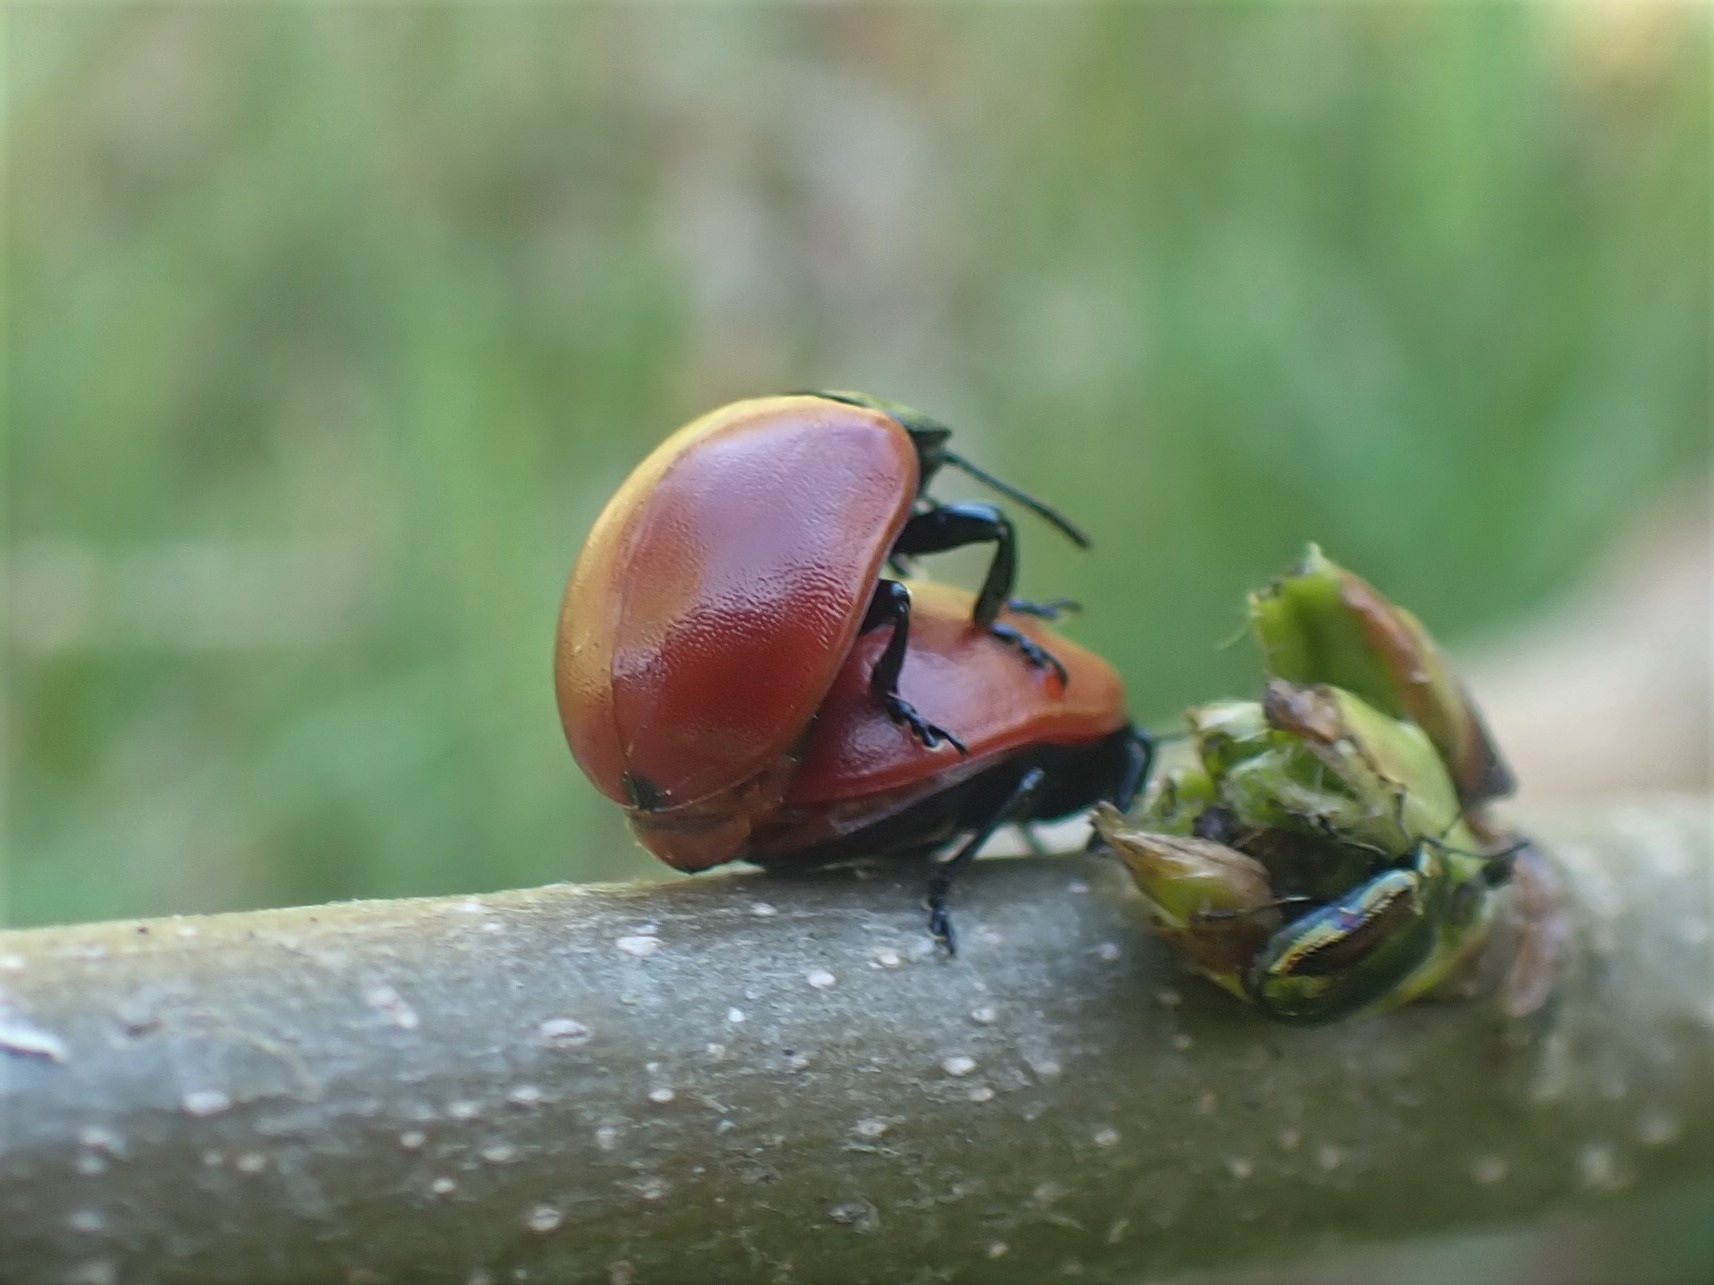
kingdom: Animalia
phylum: Arthropoda
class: Insecta
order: Coleoptera
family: Chrysomelidae
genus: Chrysomela
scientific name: Chrysomela populi
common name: Poppelbladbille
